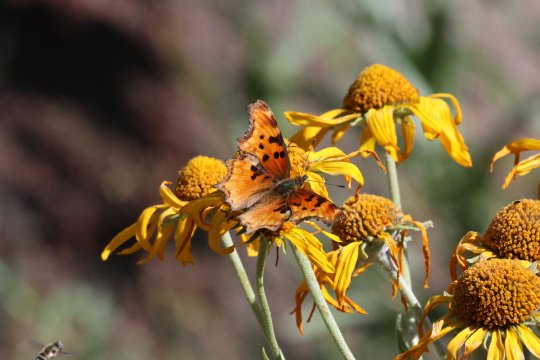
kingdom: Animalia
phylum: Arthropoda
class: Insecta
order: Lepidoptera
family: Nymphalidae
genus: Polygonia
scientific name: Polygonia gracilis
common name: Hoary Comma
